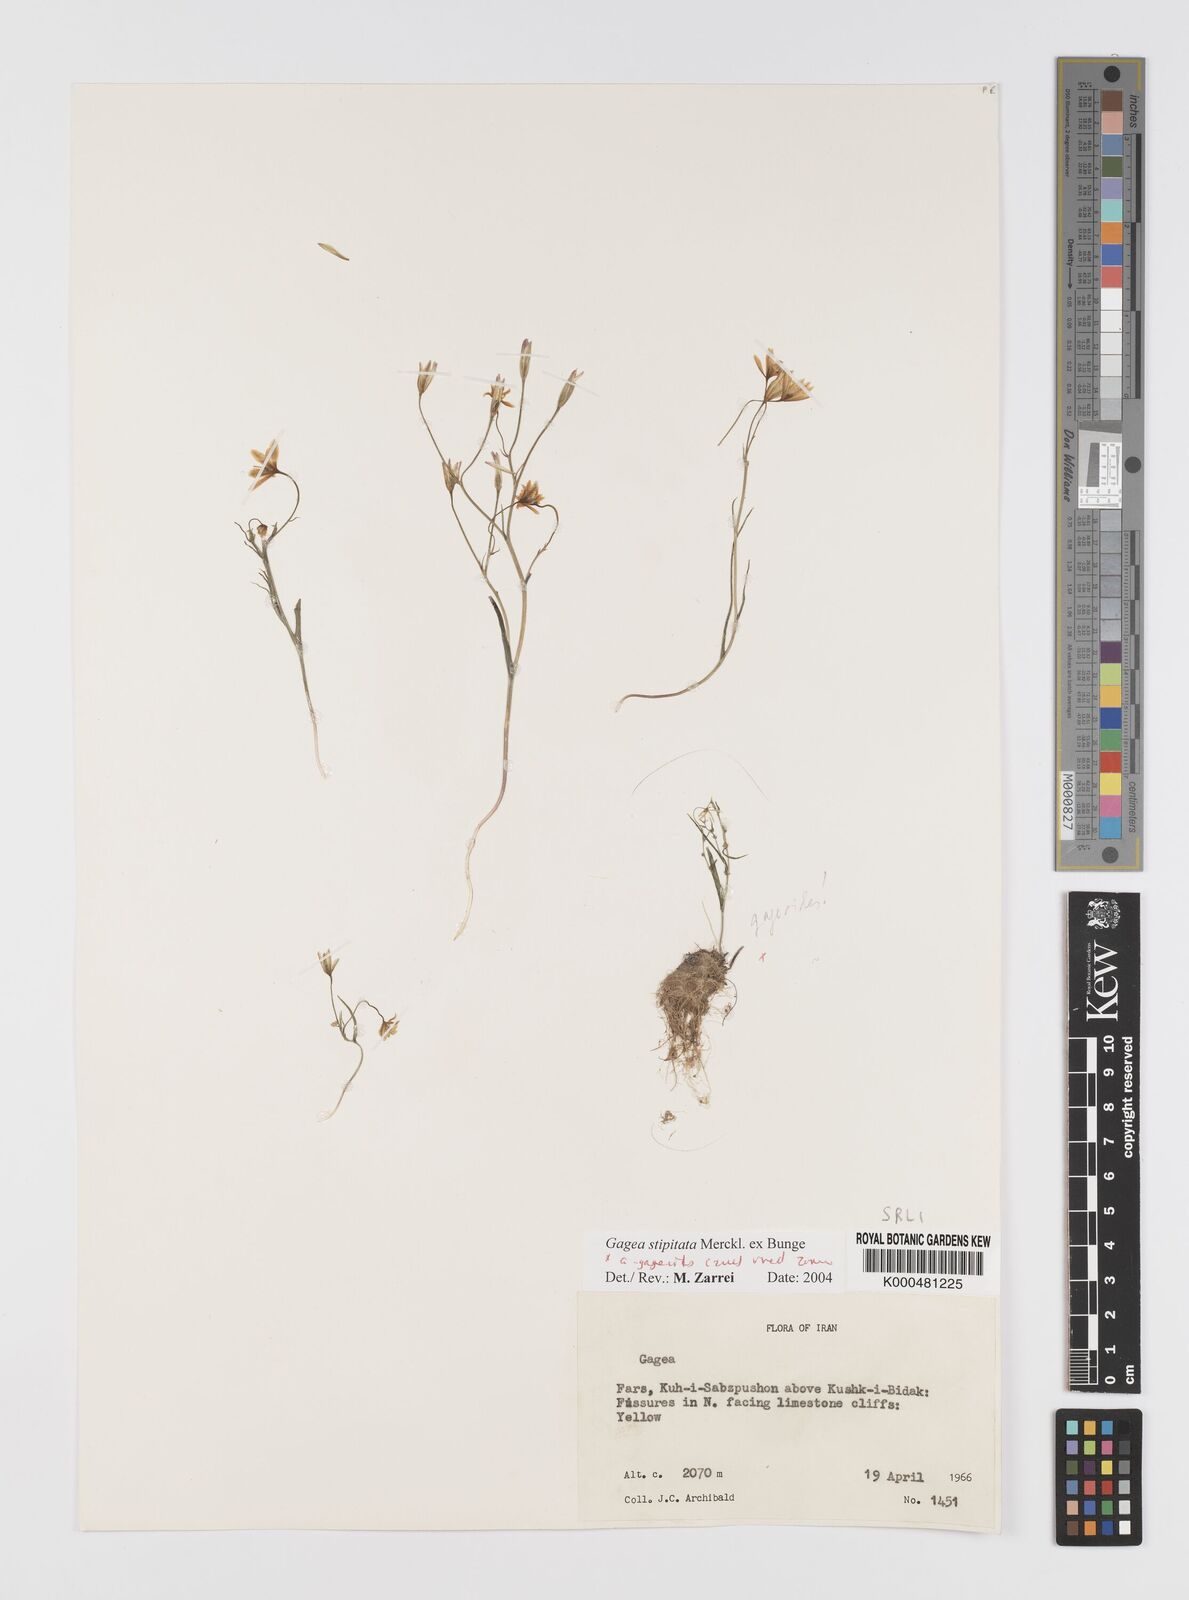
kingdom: Plantae
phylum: Tracheophyta
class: Liliopsida
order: Liliales
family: Liliaceae
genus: Gagea
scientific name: Gagea kunawurensis
